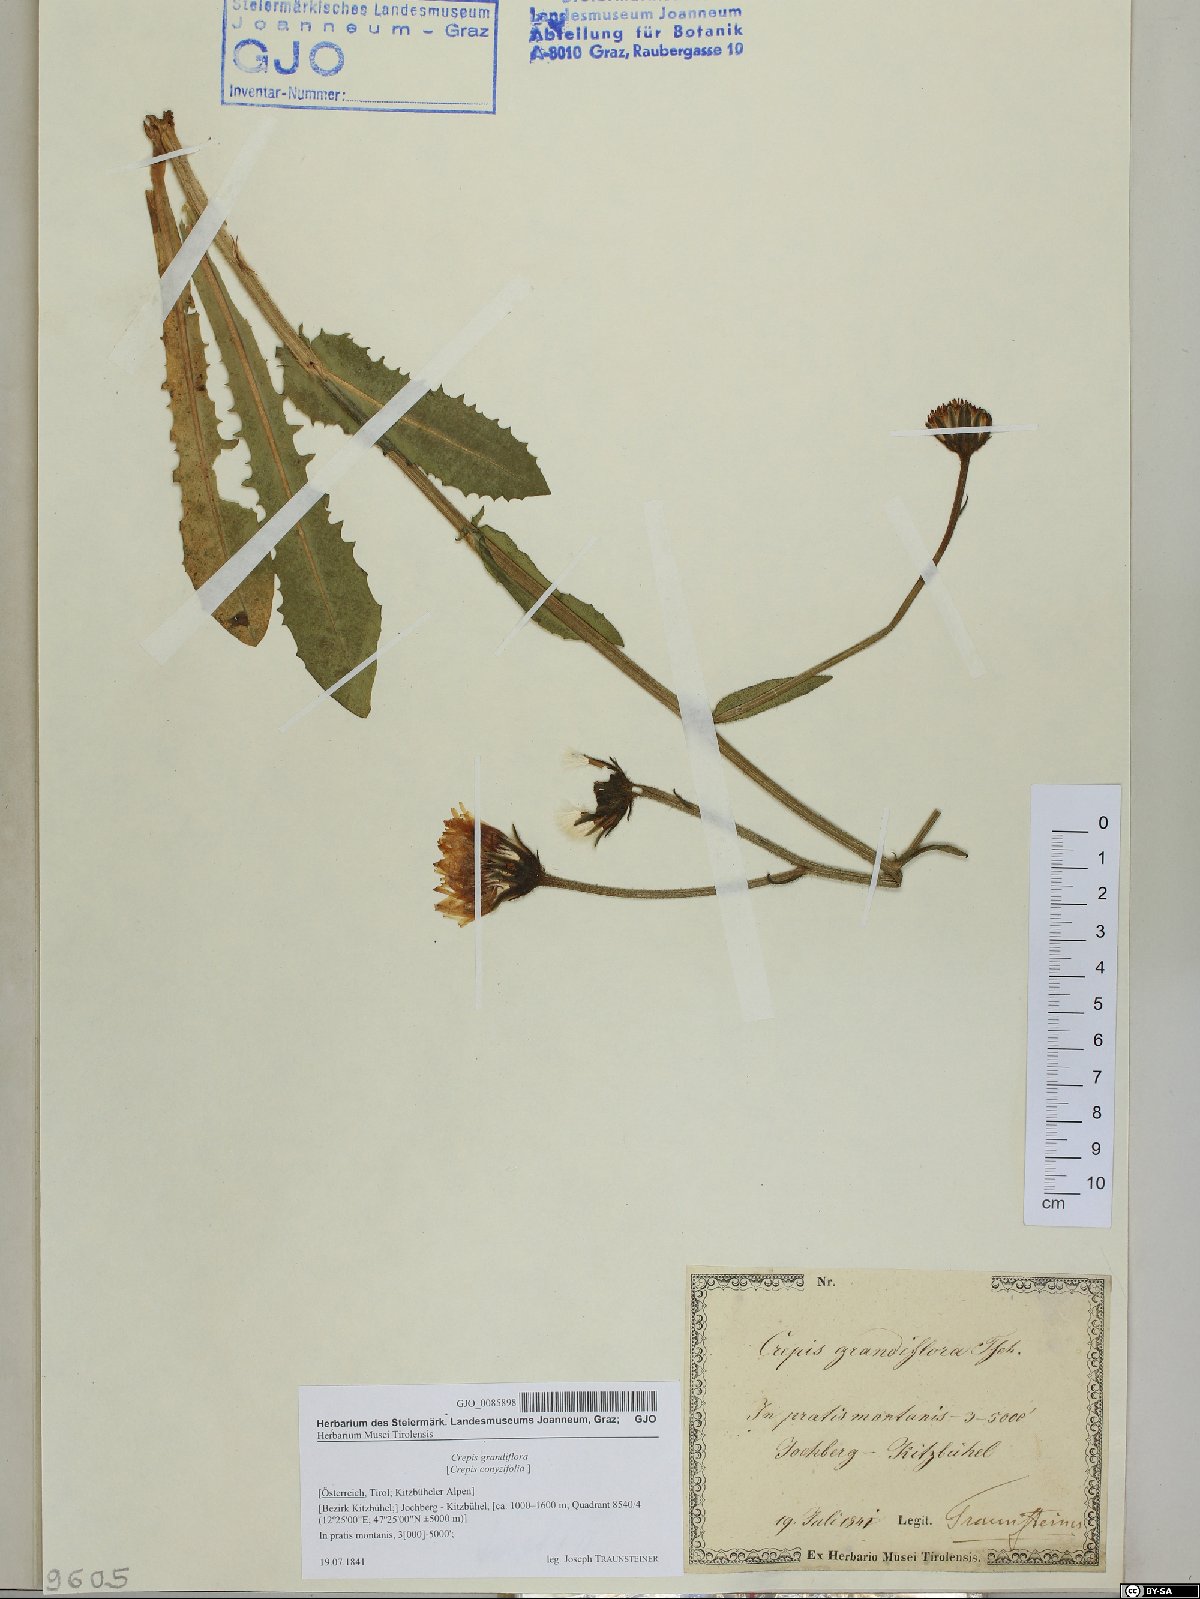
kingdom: Plantae
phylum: Tracheophyta
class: Magnoliopsida
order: Asterales
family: Asteraceae
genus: Crepis
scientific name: Crepis pyrenaica
